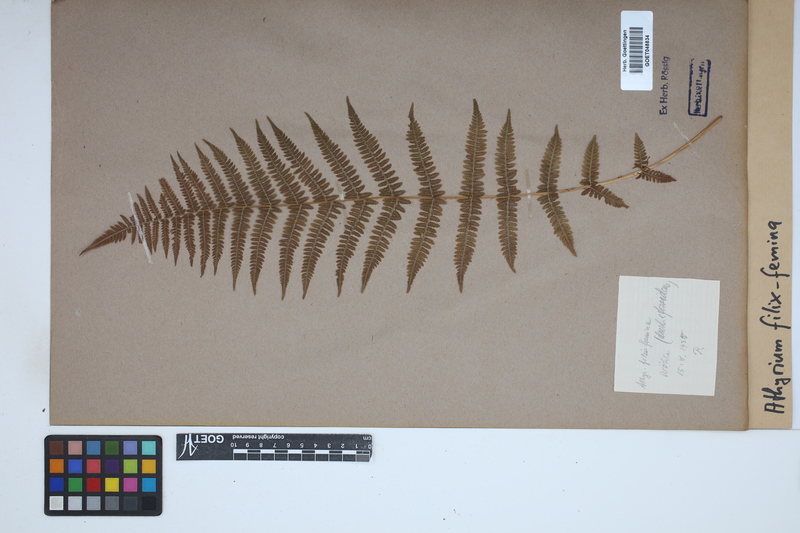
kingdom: Plantae
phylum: Tracheophyta
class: Polypodiopsida
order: Polypodiales
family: Athyriaceae
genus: Athyrium
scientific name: Athyrium filix-femina
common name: Lady fern
